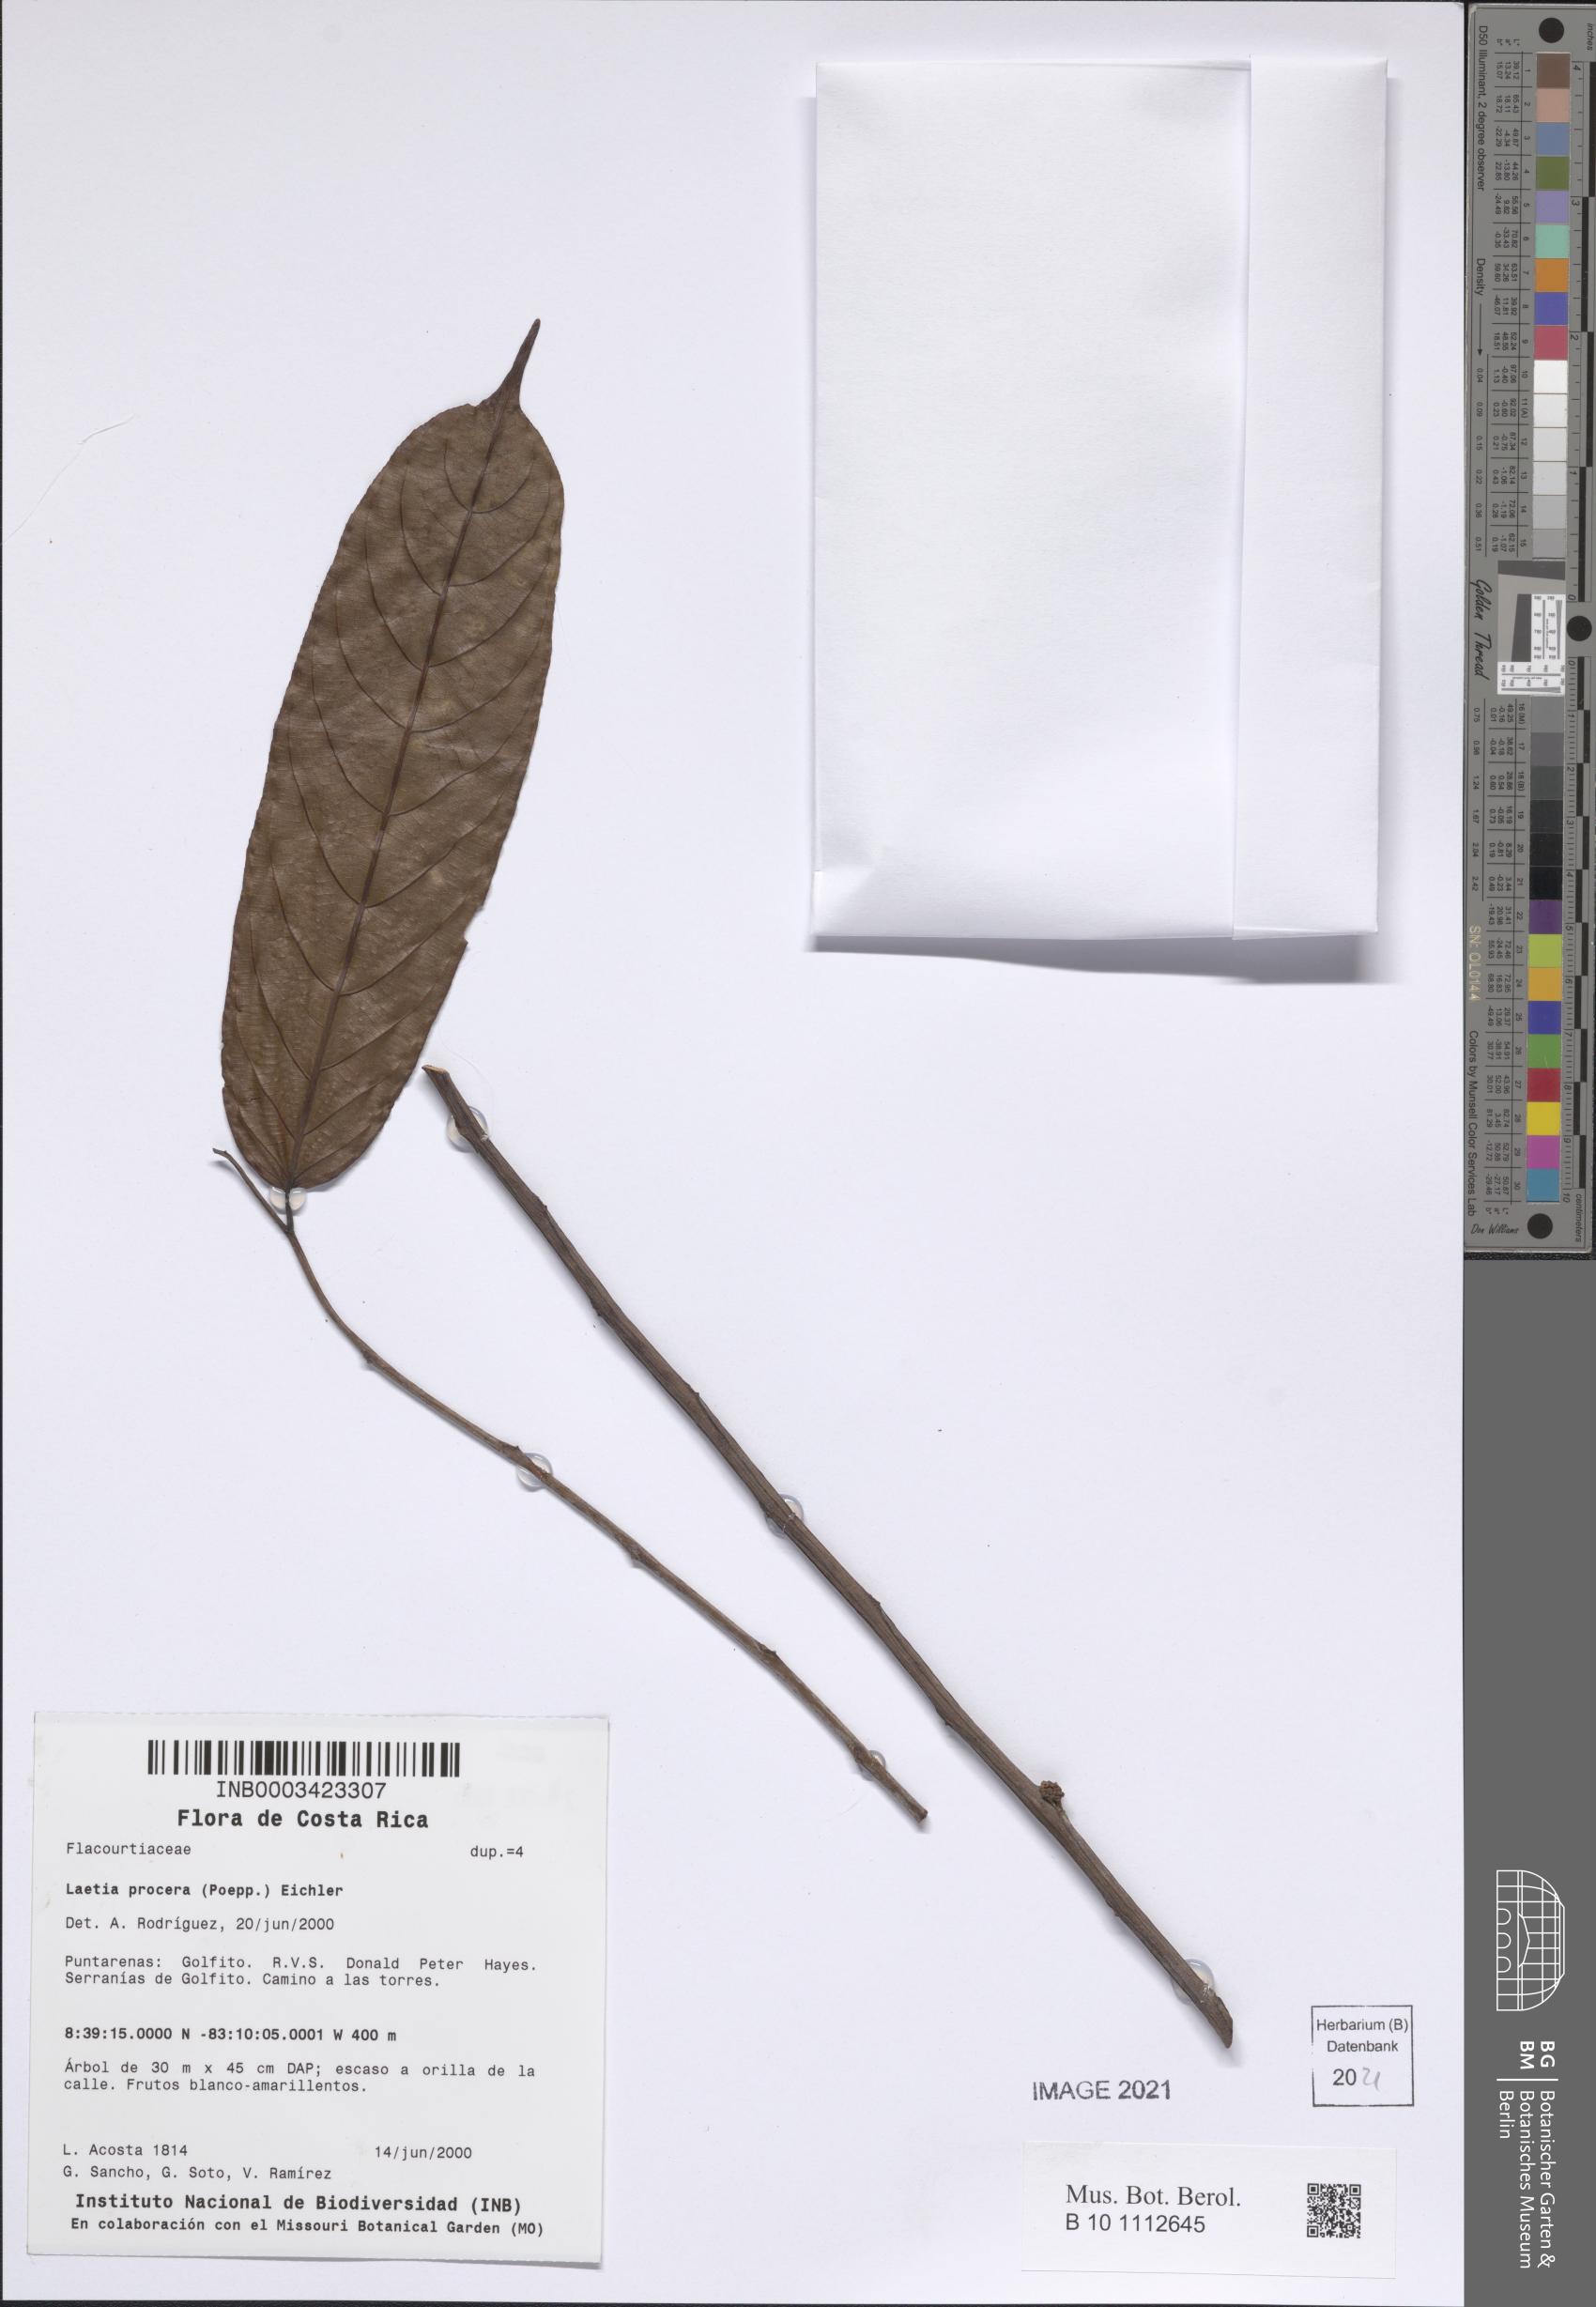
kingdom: Plantae
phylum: Tracheophyta
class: Magnoliopsida
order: Malpighiales
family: Salicaceae
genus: Casearia
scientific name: Casearia bicolor
